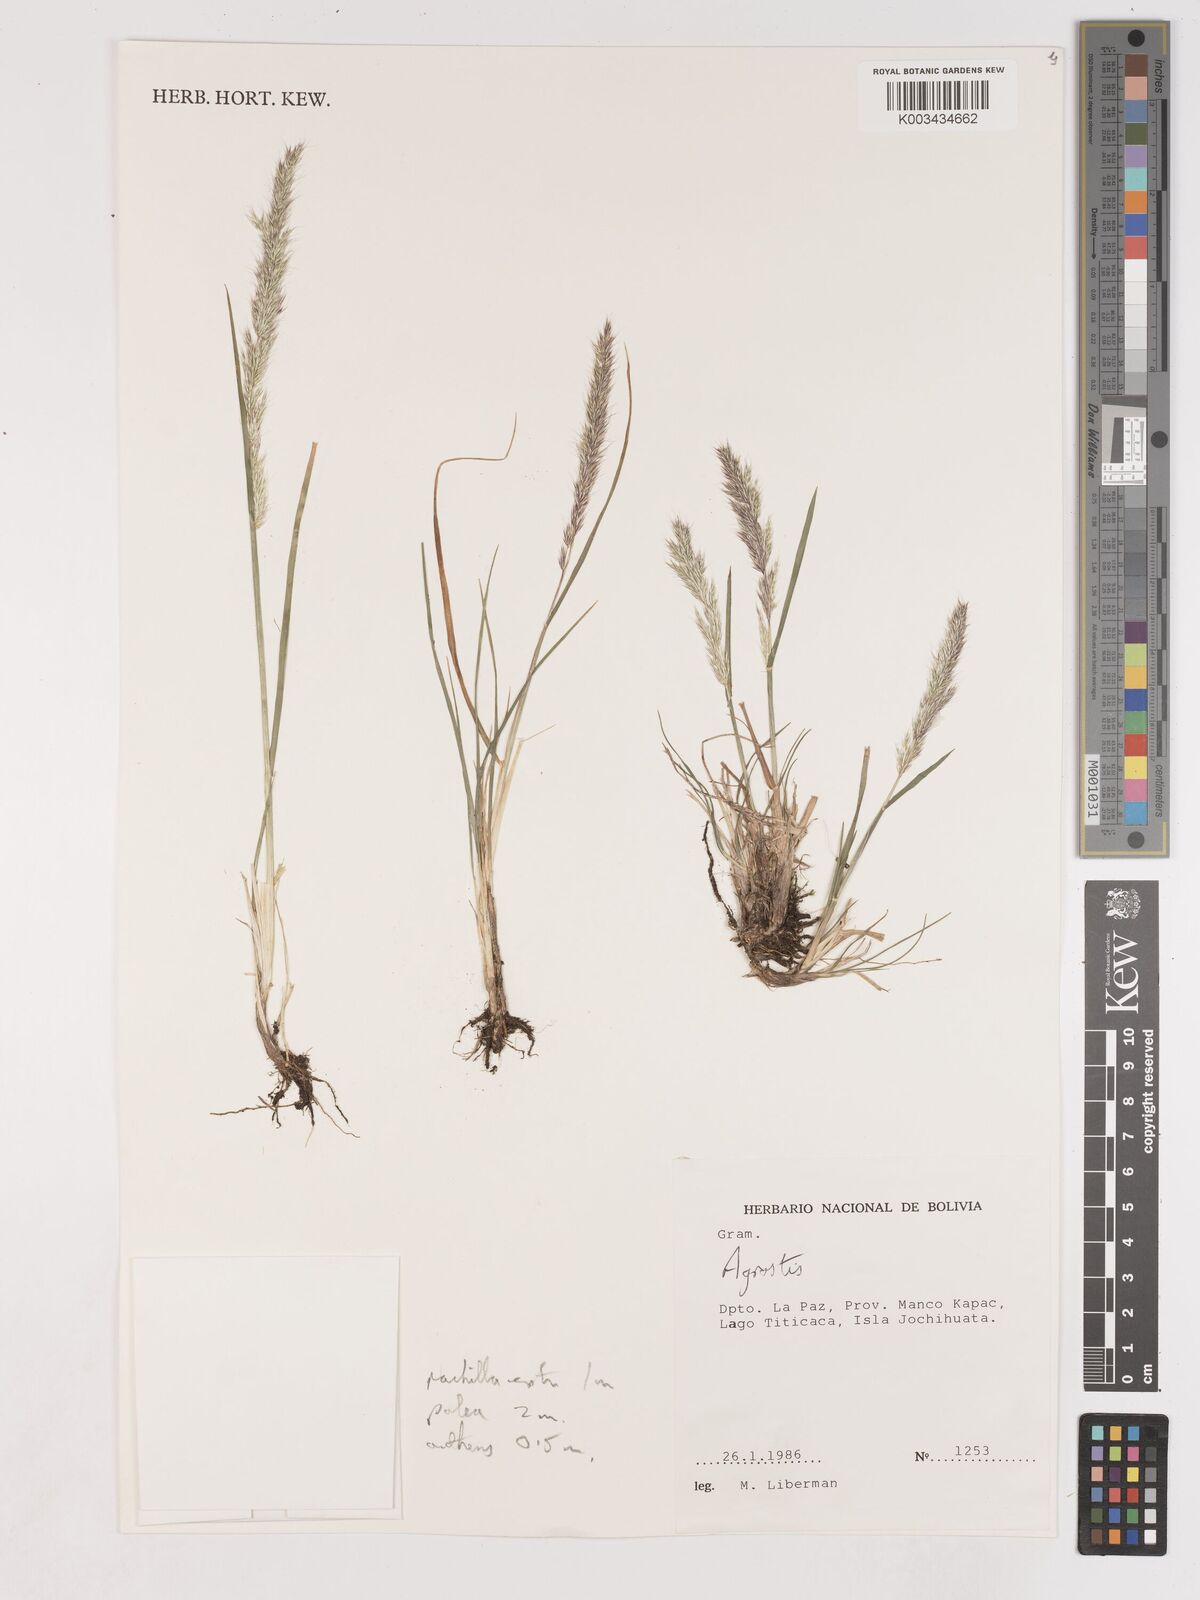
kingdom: Plantae
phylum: Tracheophyta
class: Liliopsida
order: Poales
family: Poaceae
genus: Cinnagrostis
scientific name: Cinnagrostis heterophylla
